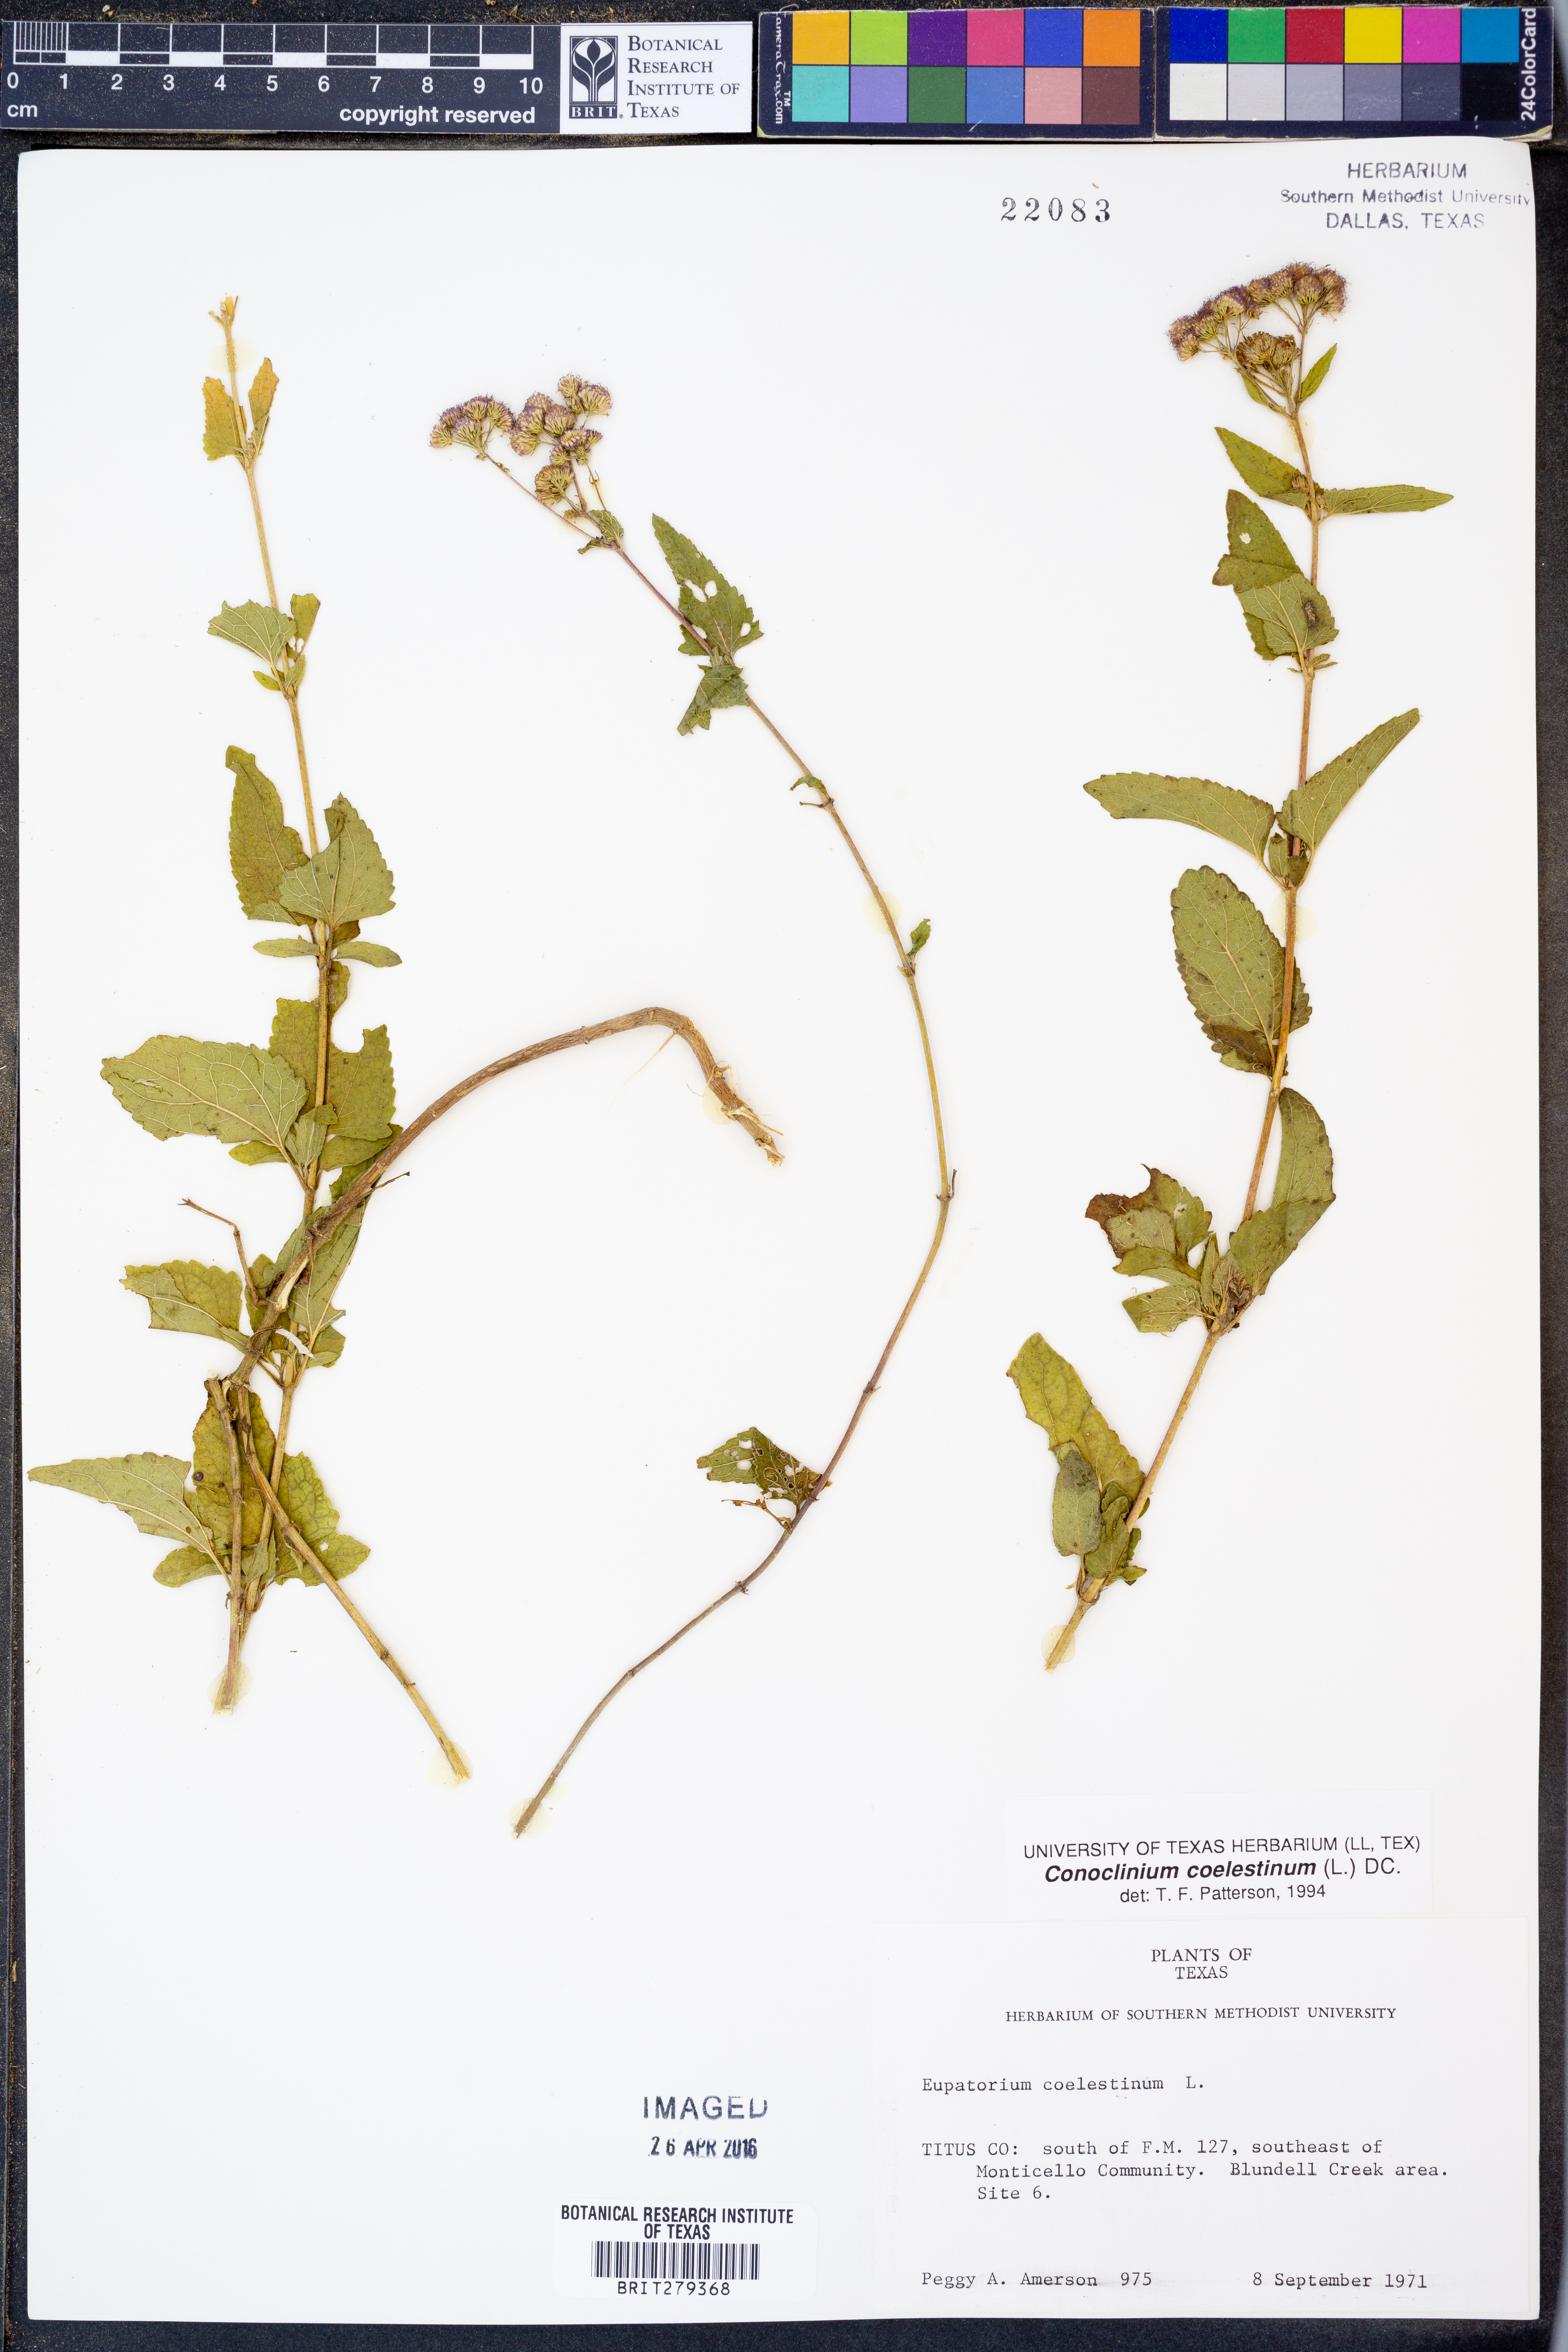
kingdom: Plantae
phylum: Tracheophyta
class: Magnoliopsida
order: Asterales
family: Asteraceae
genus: Conoclinium
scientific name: Conoclinium coelestinum
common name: Blue mistflower
